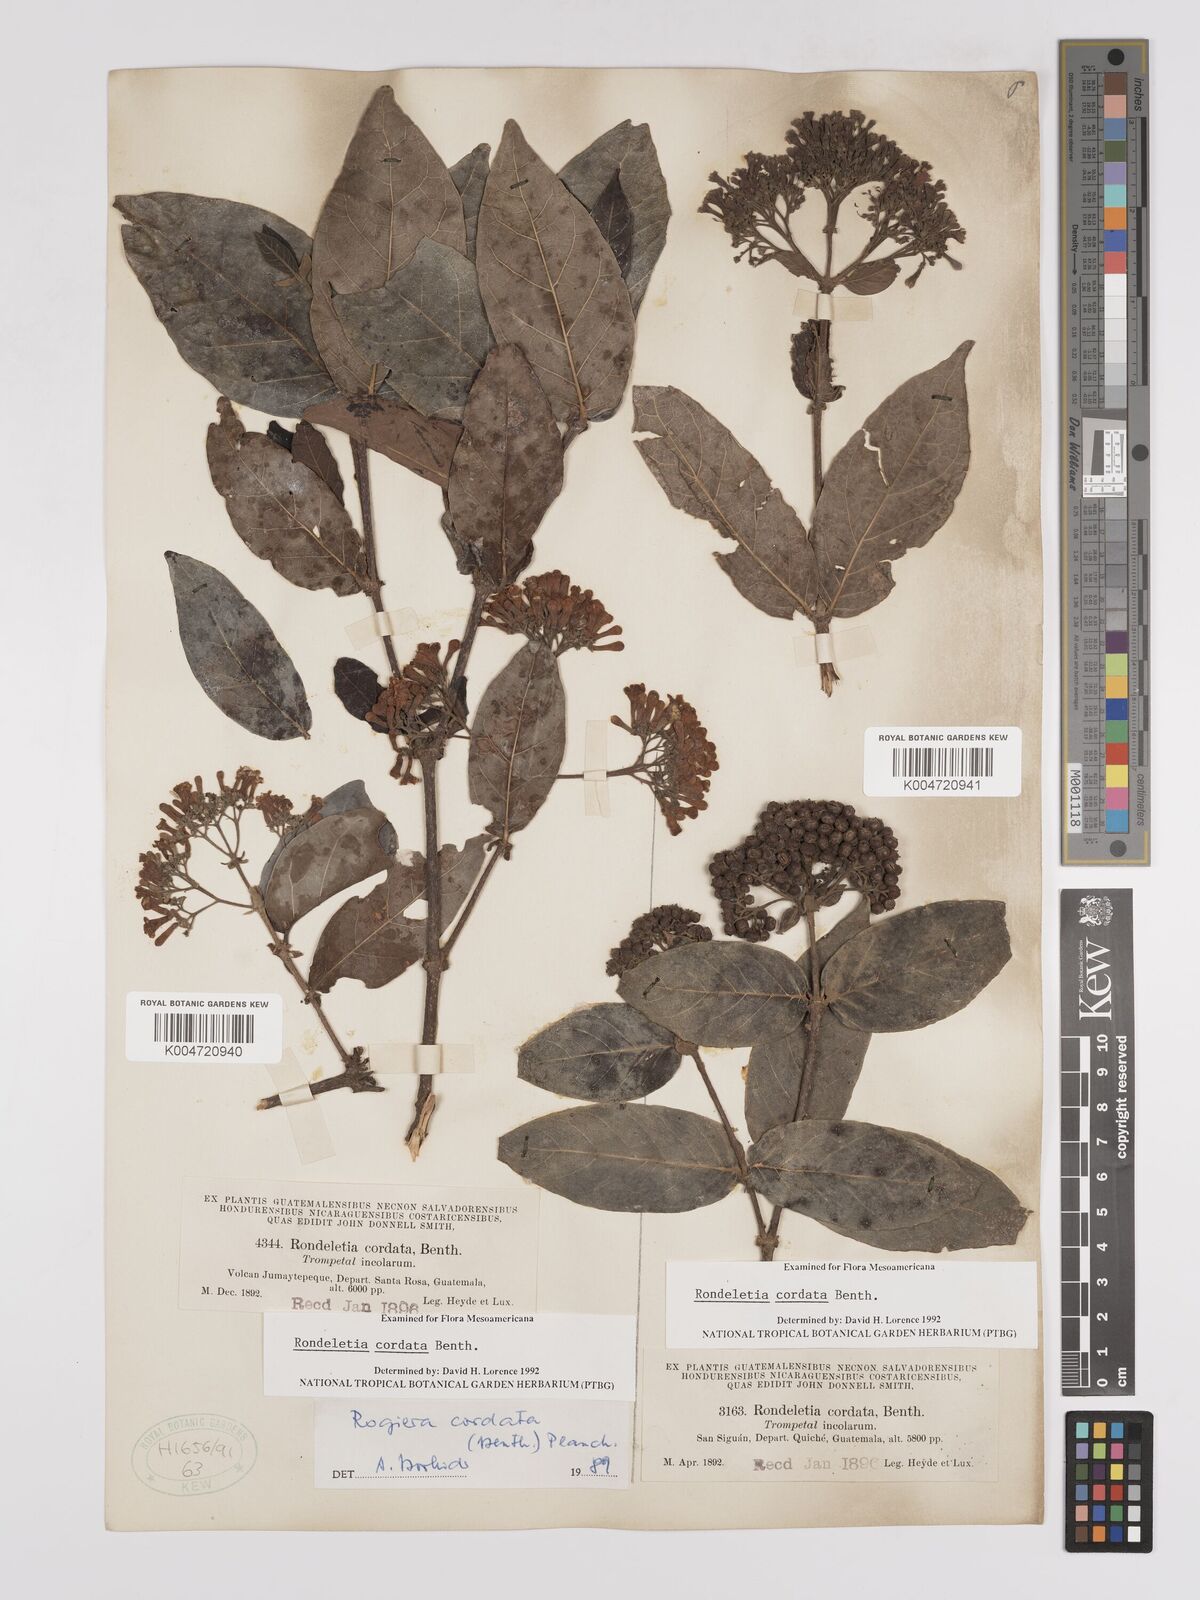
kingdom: Plantae
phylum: Tracheophyta
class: Magnoliopsida
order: Gentianales
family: Rubiaceae
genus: Rogiera
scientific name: Rogiera cordata
